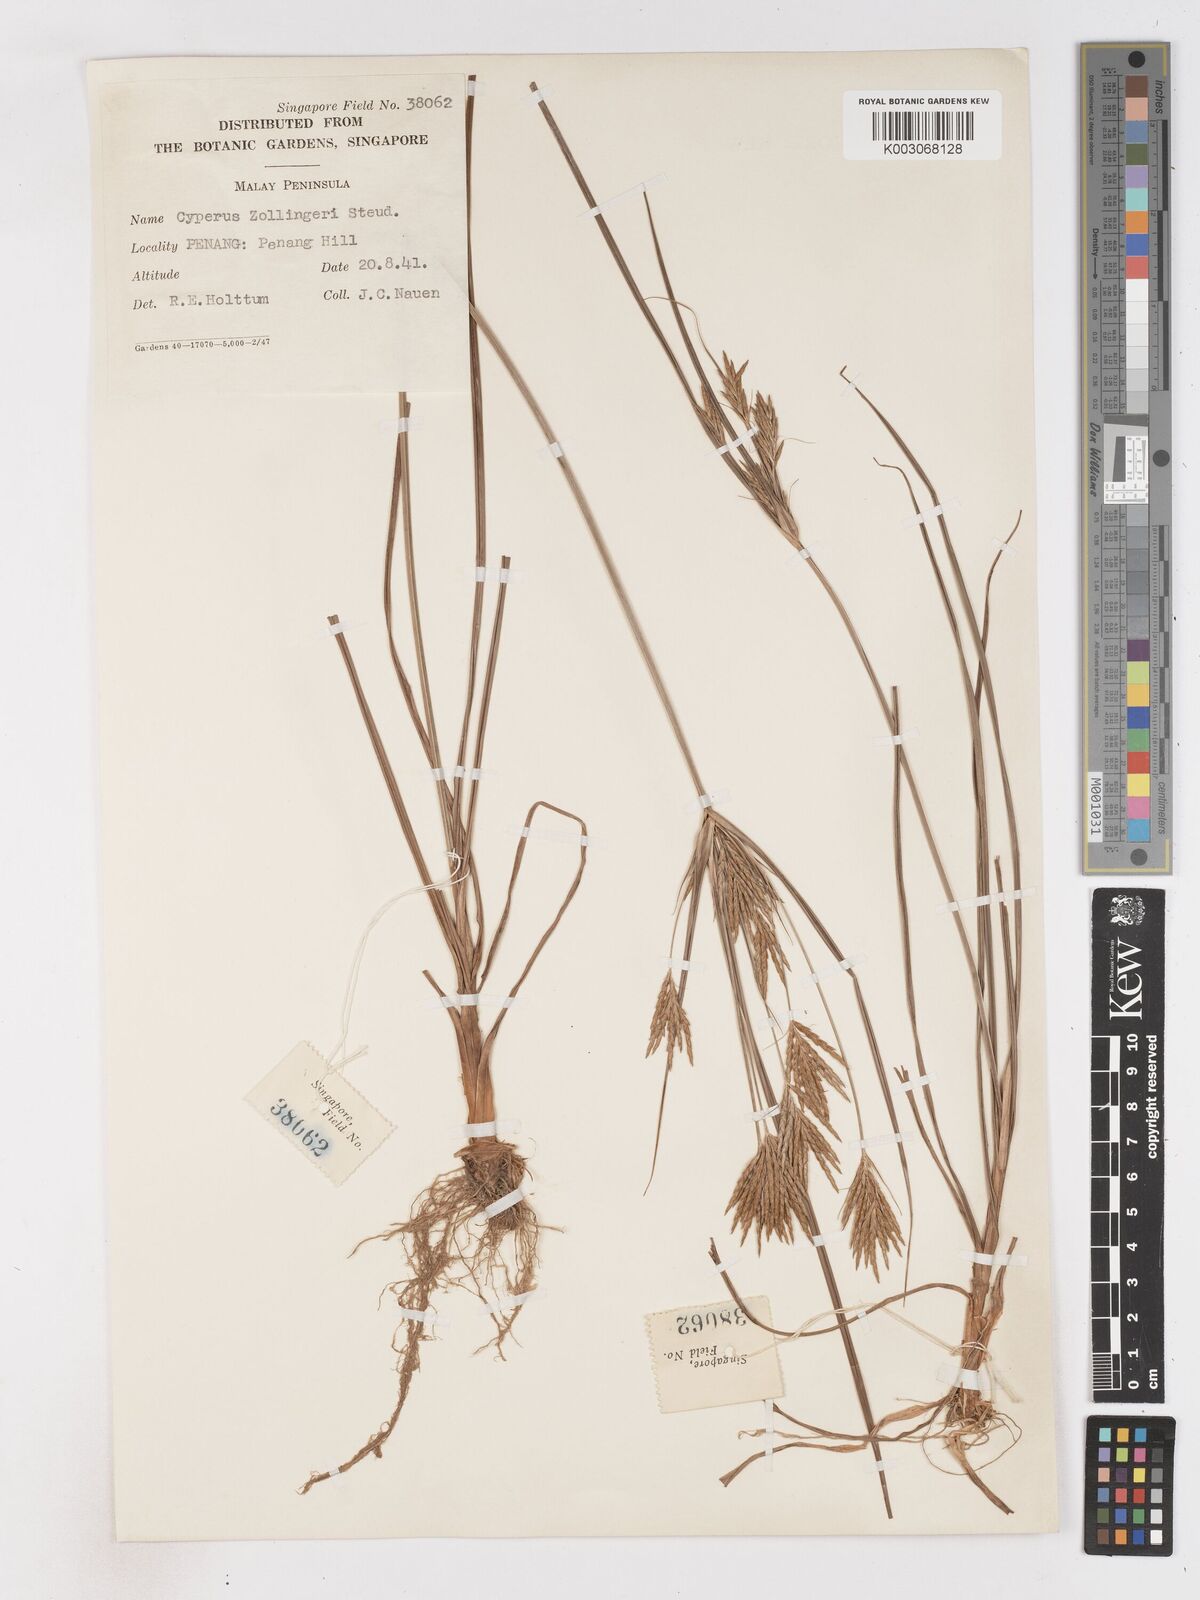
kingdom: Plantae
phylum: Tracheophyta
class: Liliopsida
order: Poales
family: Cyperaceae
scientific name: Cyperaceae
